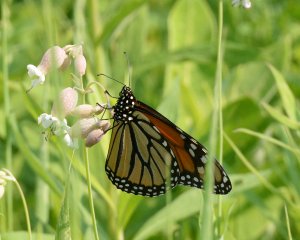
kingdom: Animalia
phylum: Arthropoda
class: Insecta
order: Lepidoptera
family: Nymphalidae
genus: Danaus
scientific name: Danaus plexippus
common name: Monarch
